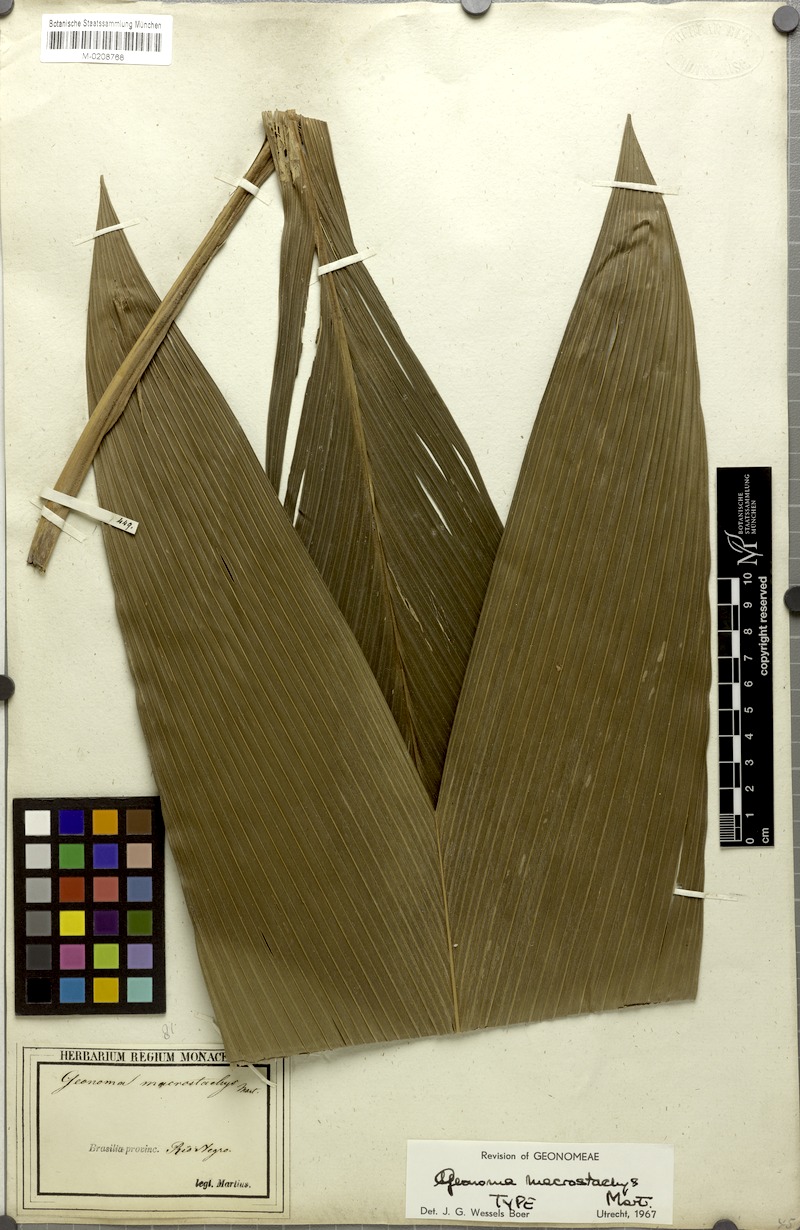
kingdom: Plantae
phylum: Tracheophyta
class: Liliopsida
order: Arecales
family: Arecaceae
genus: Geonoma
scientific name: Geonoma macrostachys
